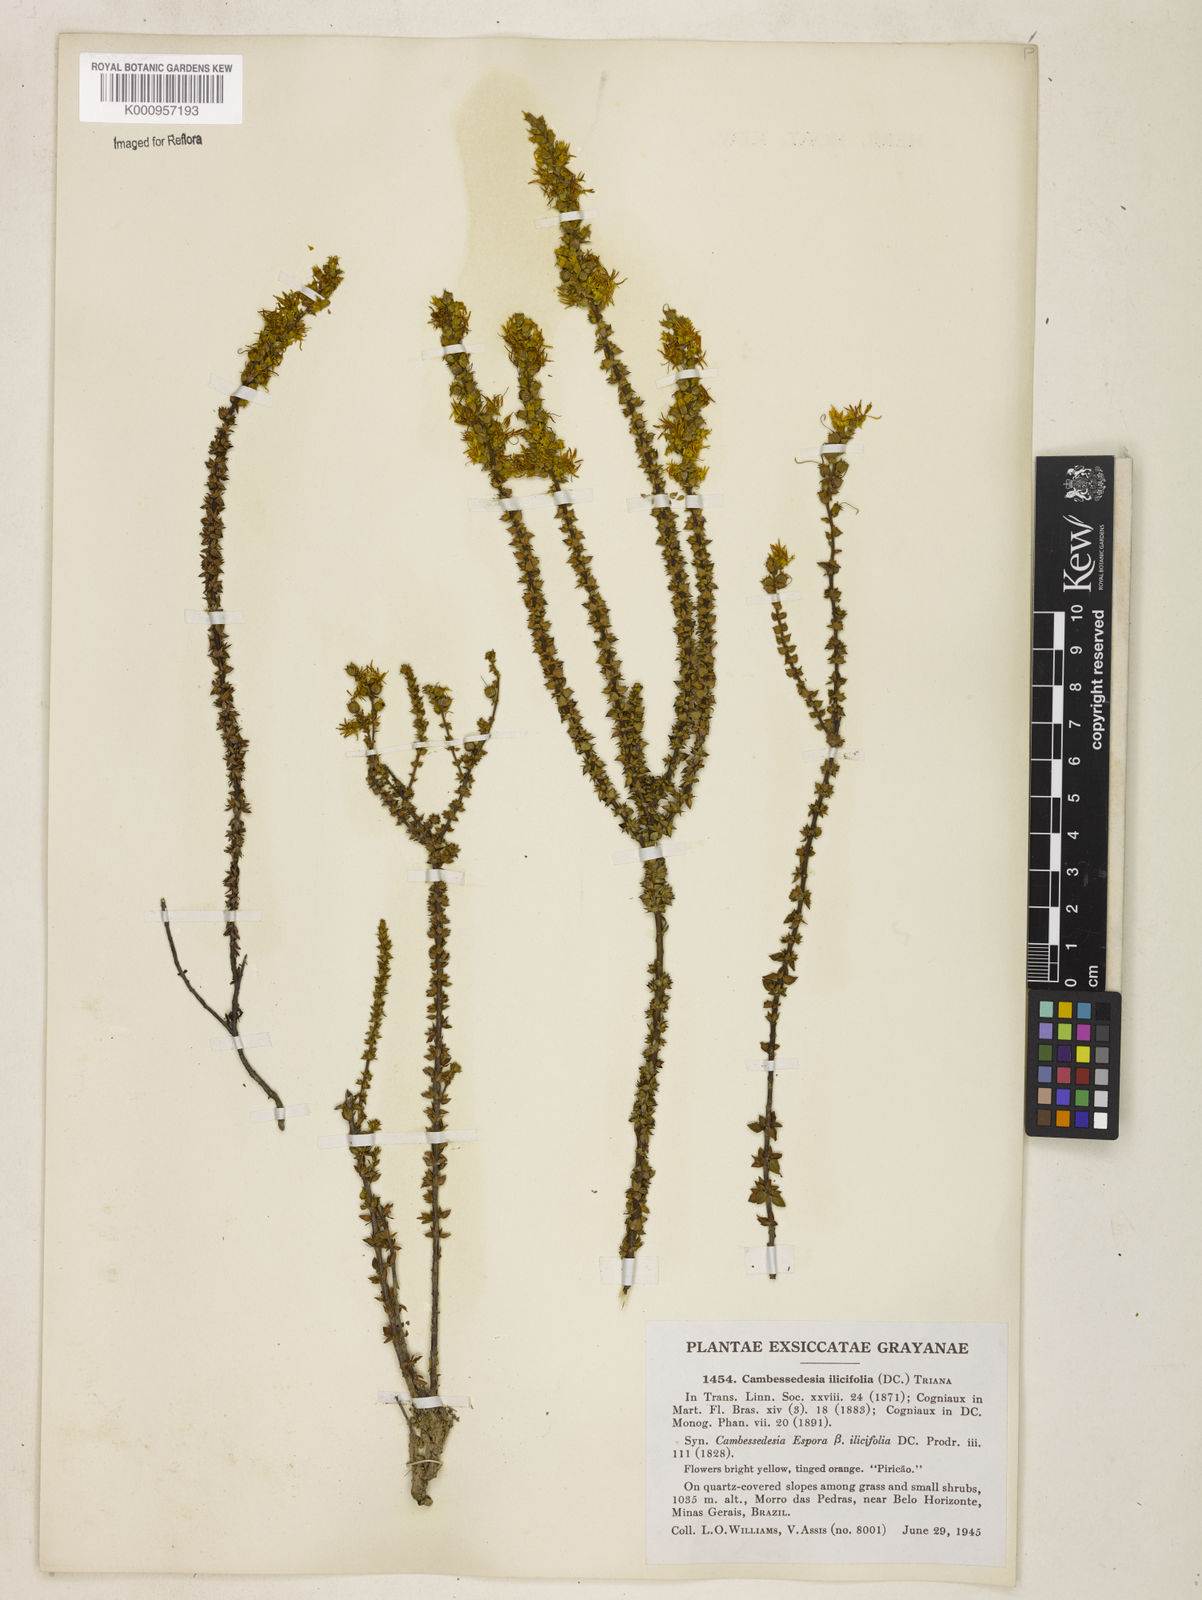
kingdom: Plantae
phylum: Tracheophyta
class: Magnoliopsida
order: Myrtales
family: Melastomataceae
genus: Cambessedesia
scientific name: Cambessedesia espora
